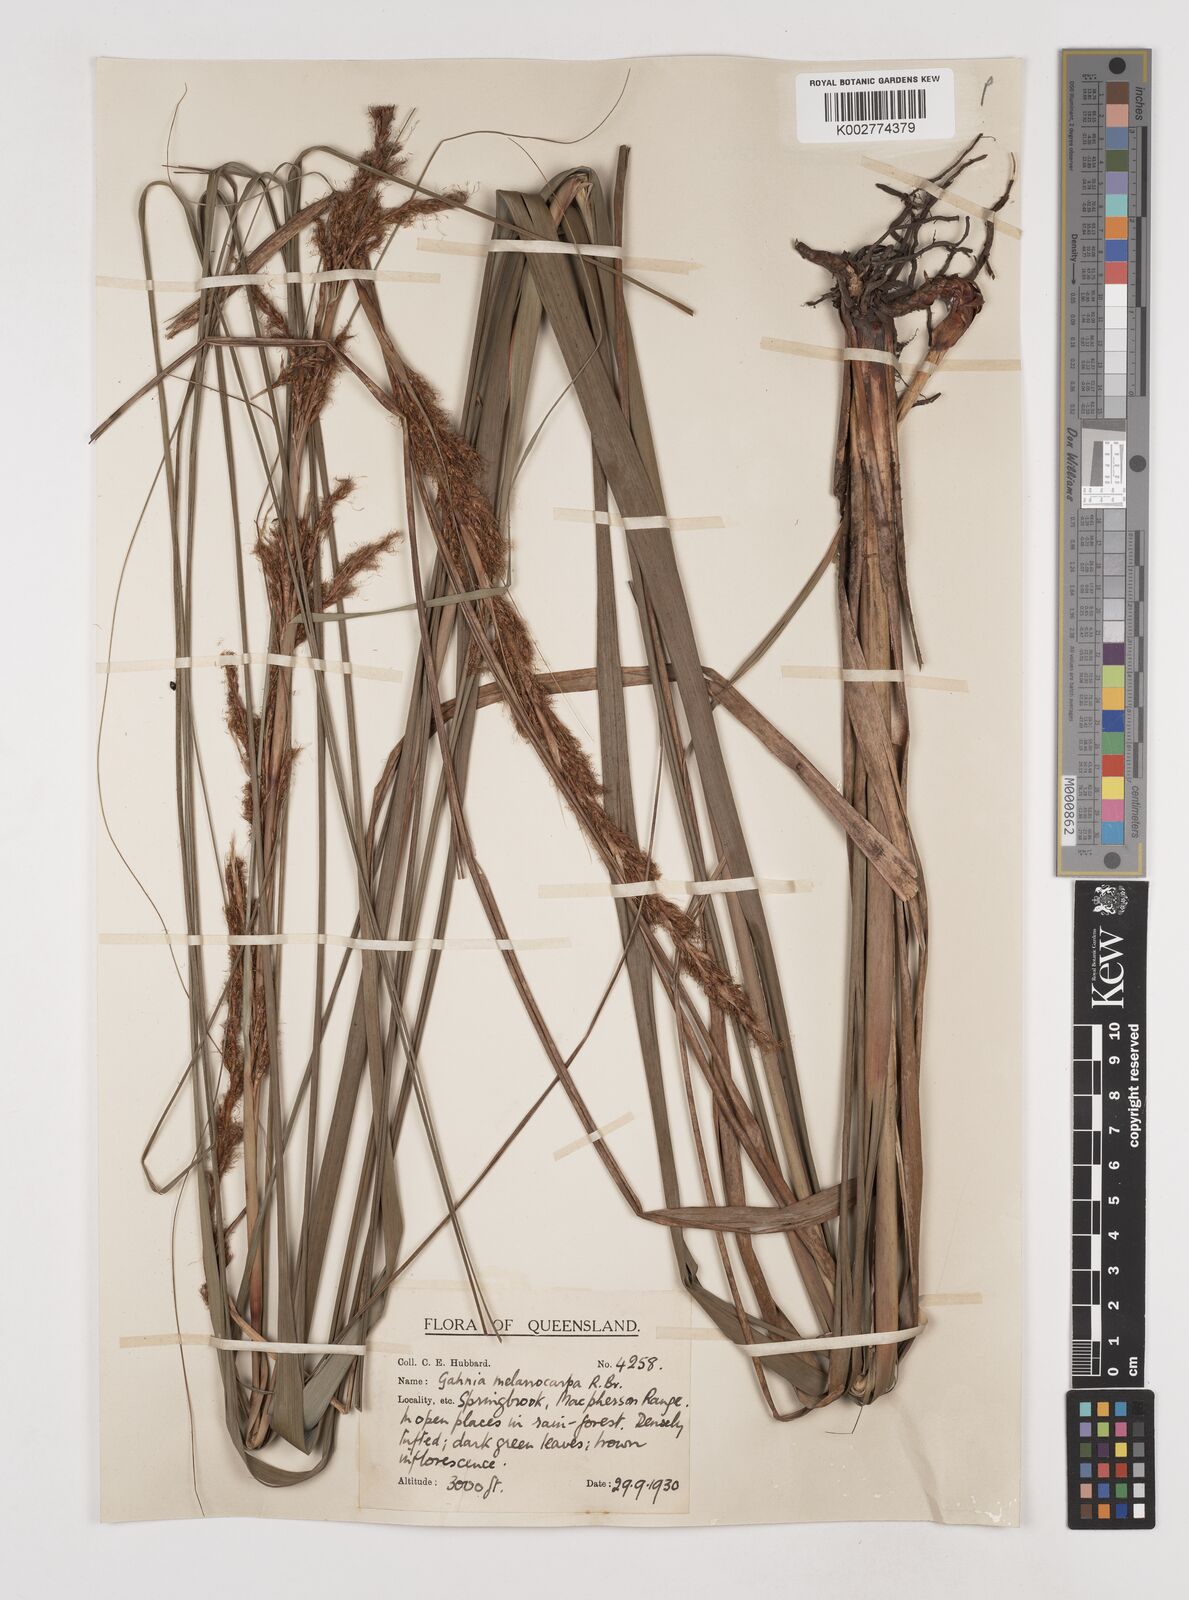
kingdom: Plantae
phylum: Tracheophyta
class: Liliopsida
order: Poales
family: Cyperaceae
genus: Gahnia
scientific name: Gahnia melanocarpa
